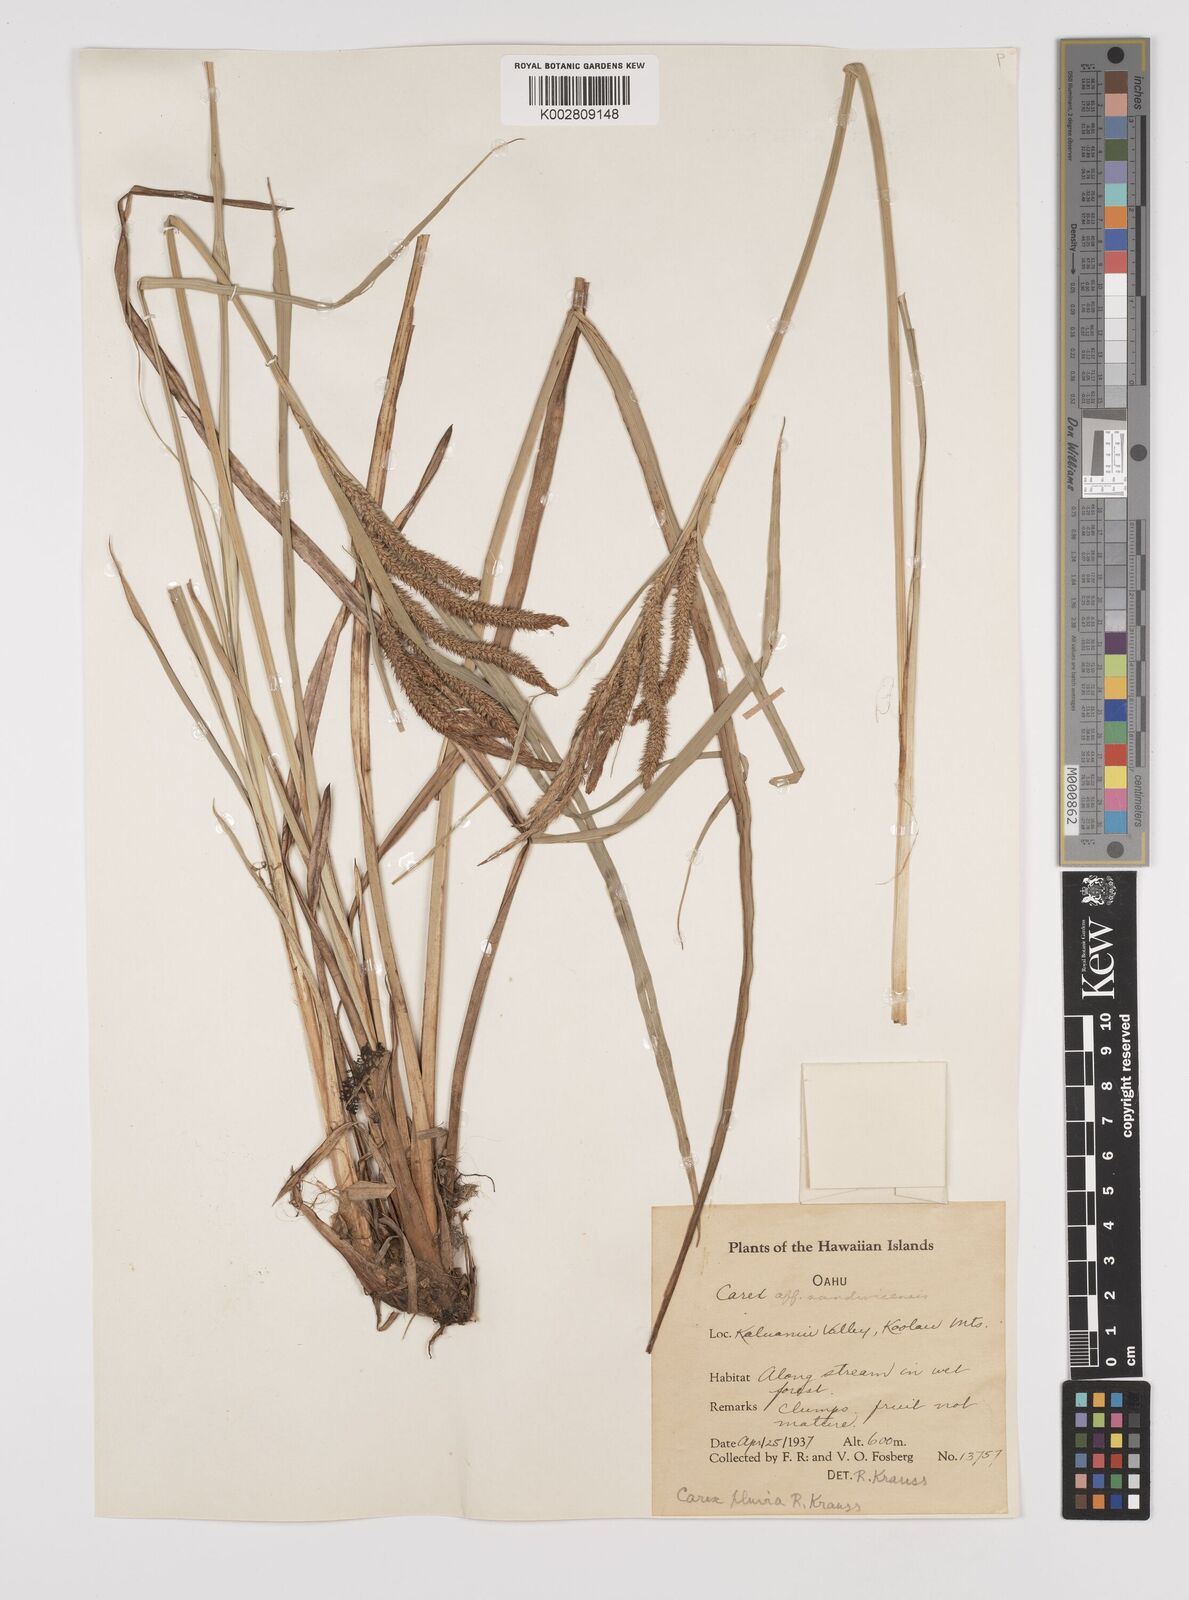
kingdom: Plantae
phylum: Tracheophyta
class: Liliopsida
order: Poales
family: Cyperaceae
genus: Carex
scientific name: Carex alligata
